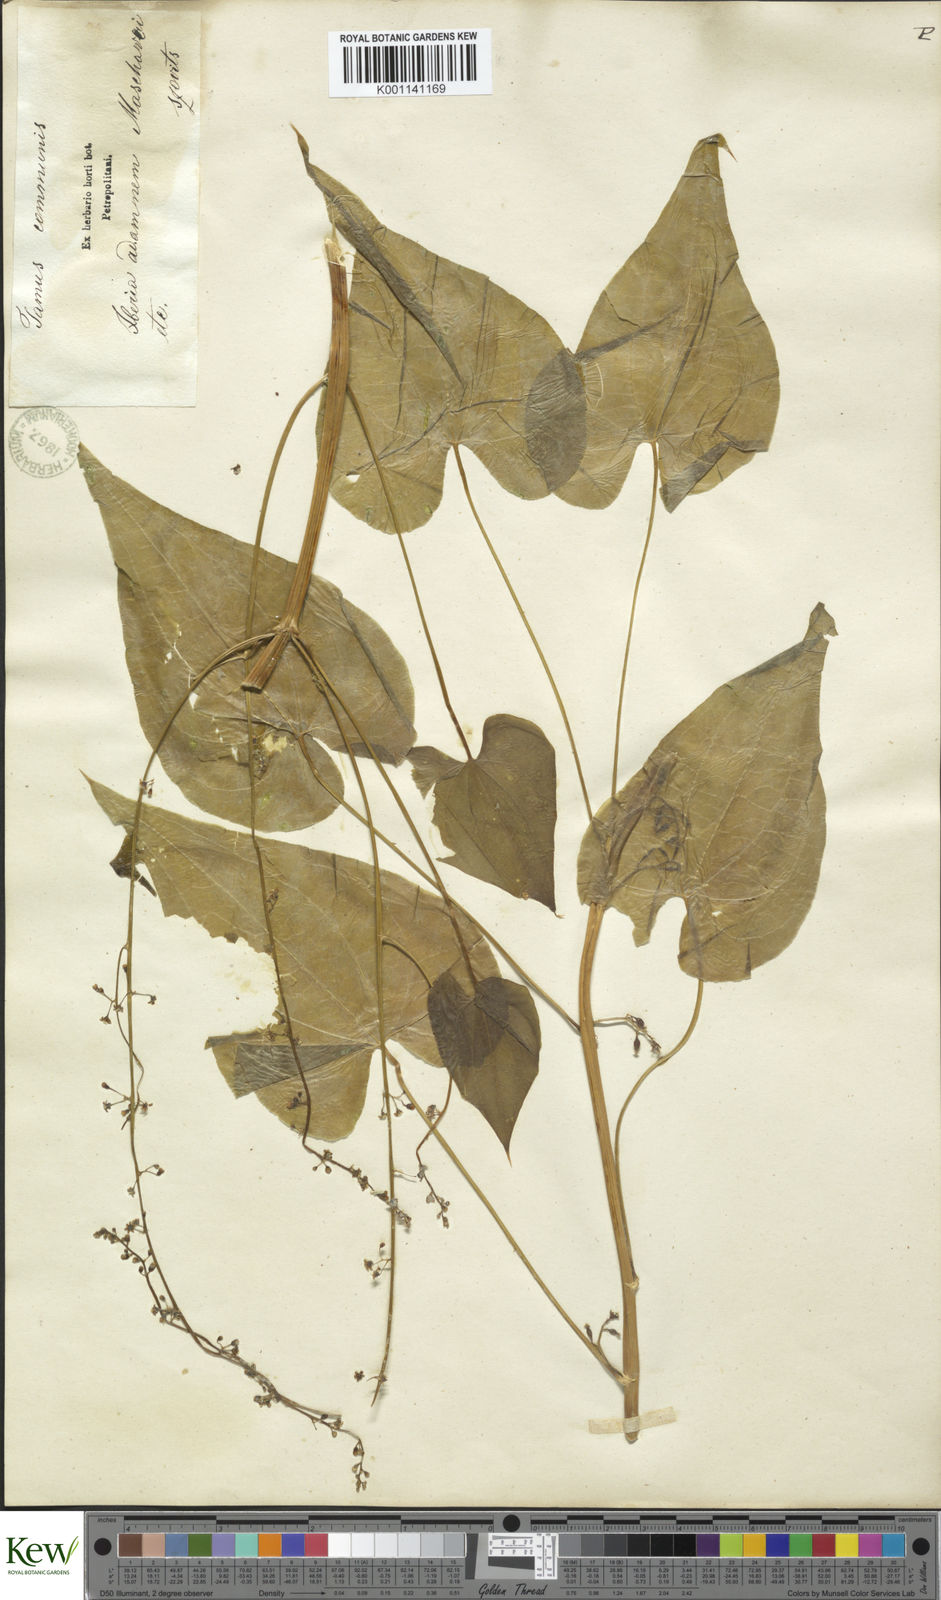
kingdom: Plantae
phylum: Tracheophyta
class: Liliopsida
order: Dioscoreales
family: Dioscoreaceae
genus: Dioscorea
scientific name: Dioscorea communis
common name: Black-bindweed
